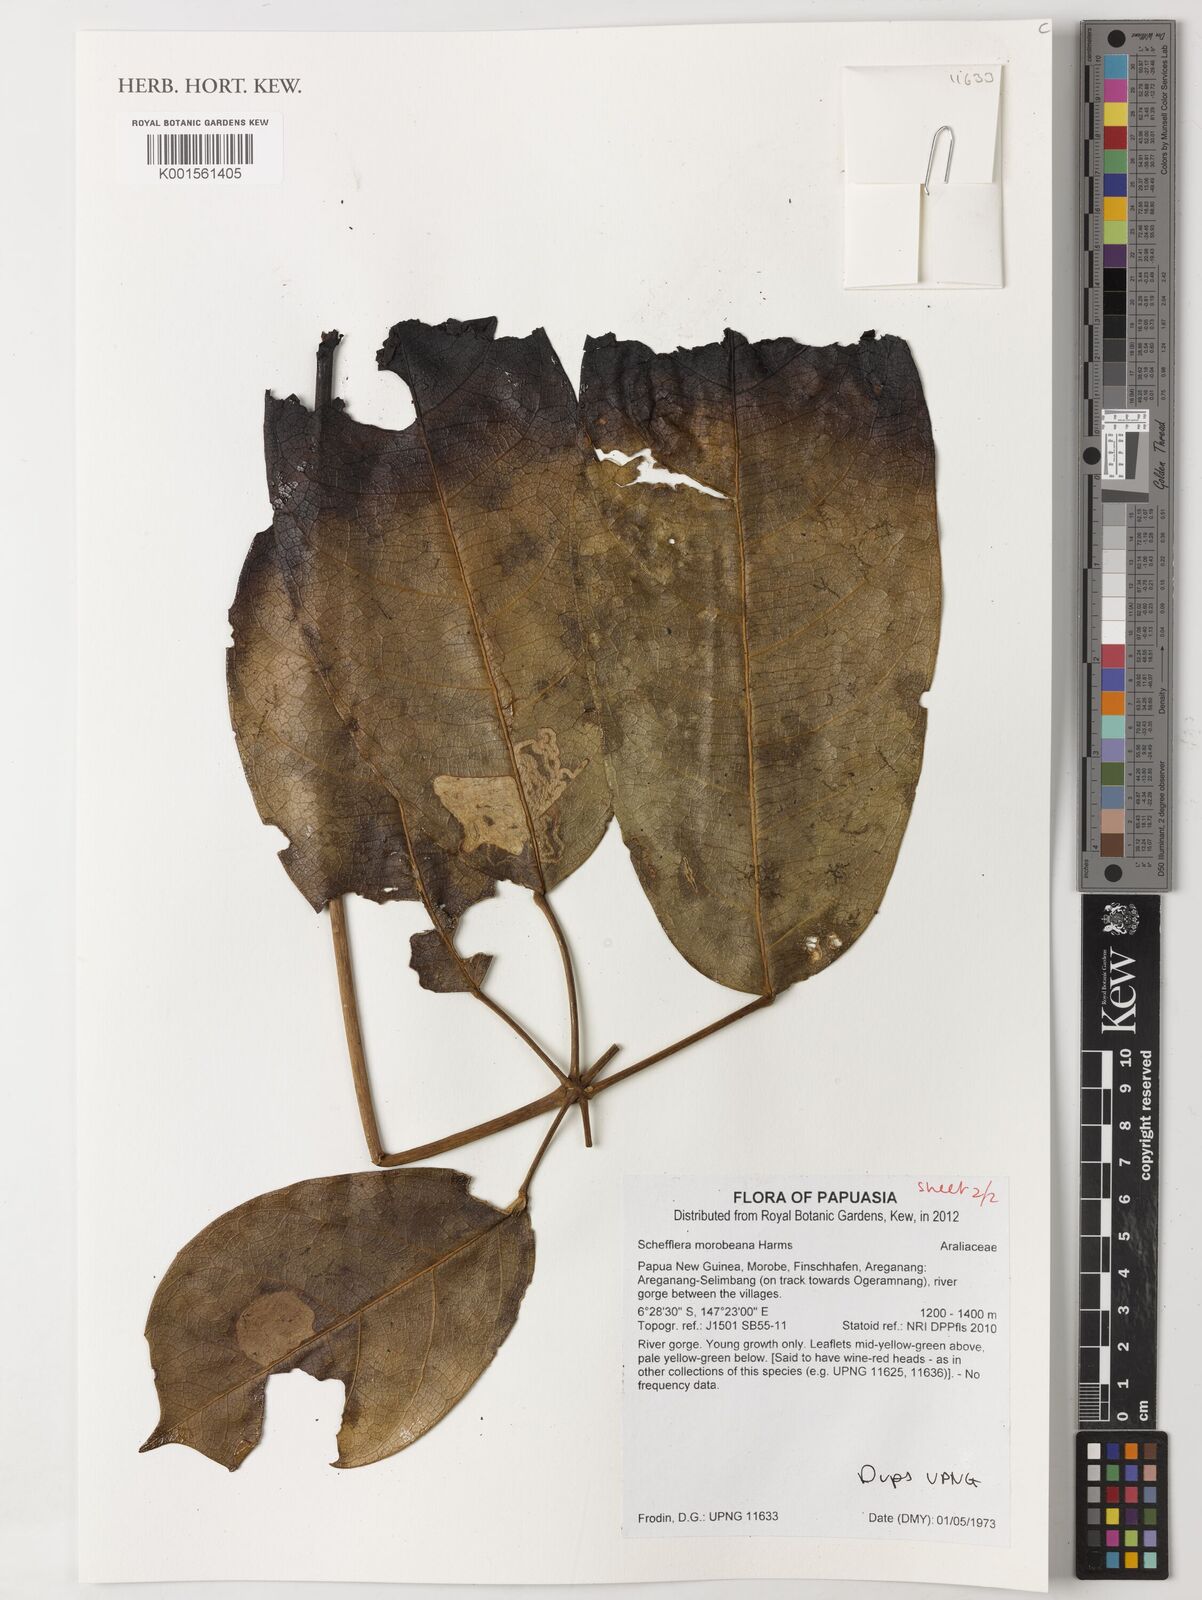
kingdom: Plantae
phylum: Tracheophyta
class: Magnoliopsida
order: Apiales
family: Araliaceae
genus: Heptapleurum
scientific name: Heptapleurum morobeanum
